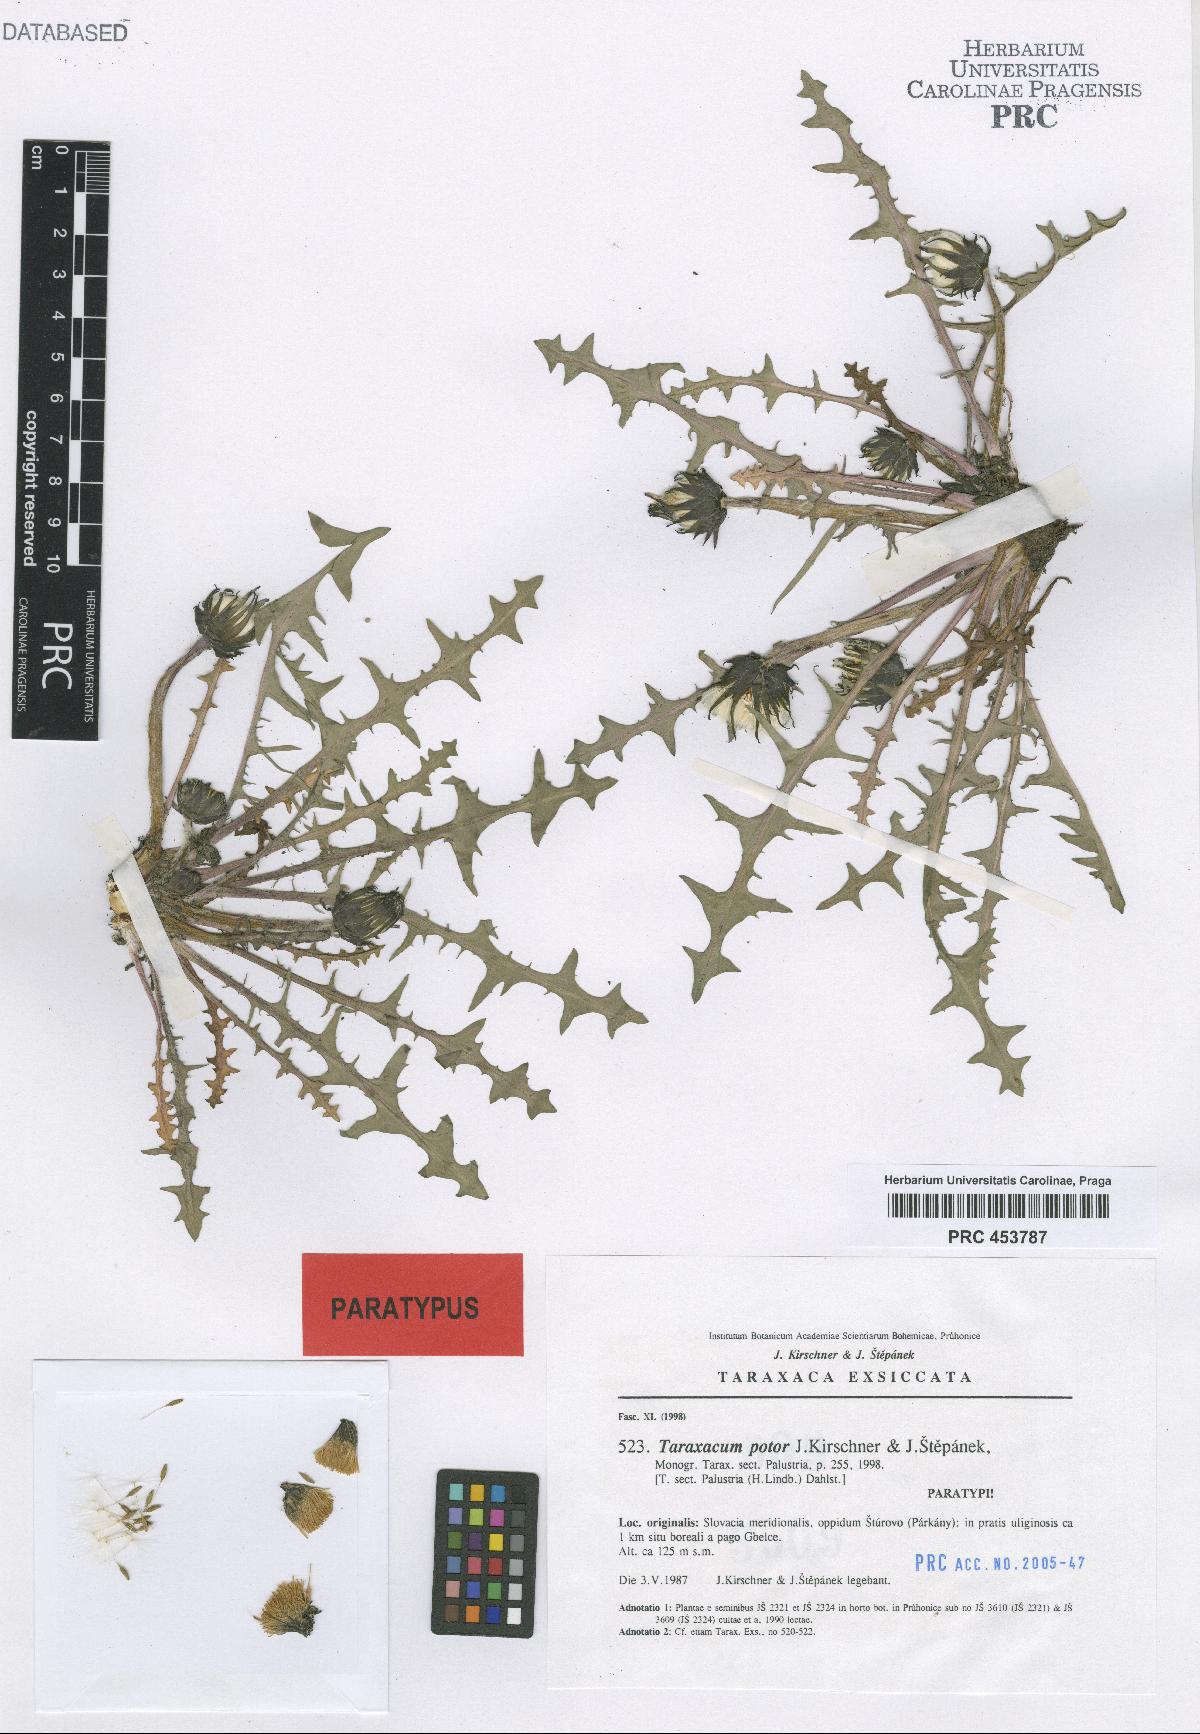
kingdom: Plantae
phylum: Tracheophyta
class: Magnoliopsida
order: Asterales
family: Asteraceae
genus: Taraxacum
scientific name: Taraxacum potor
